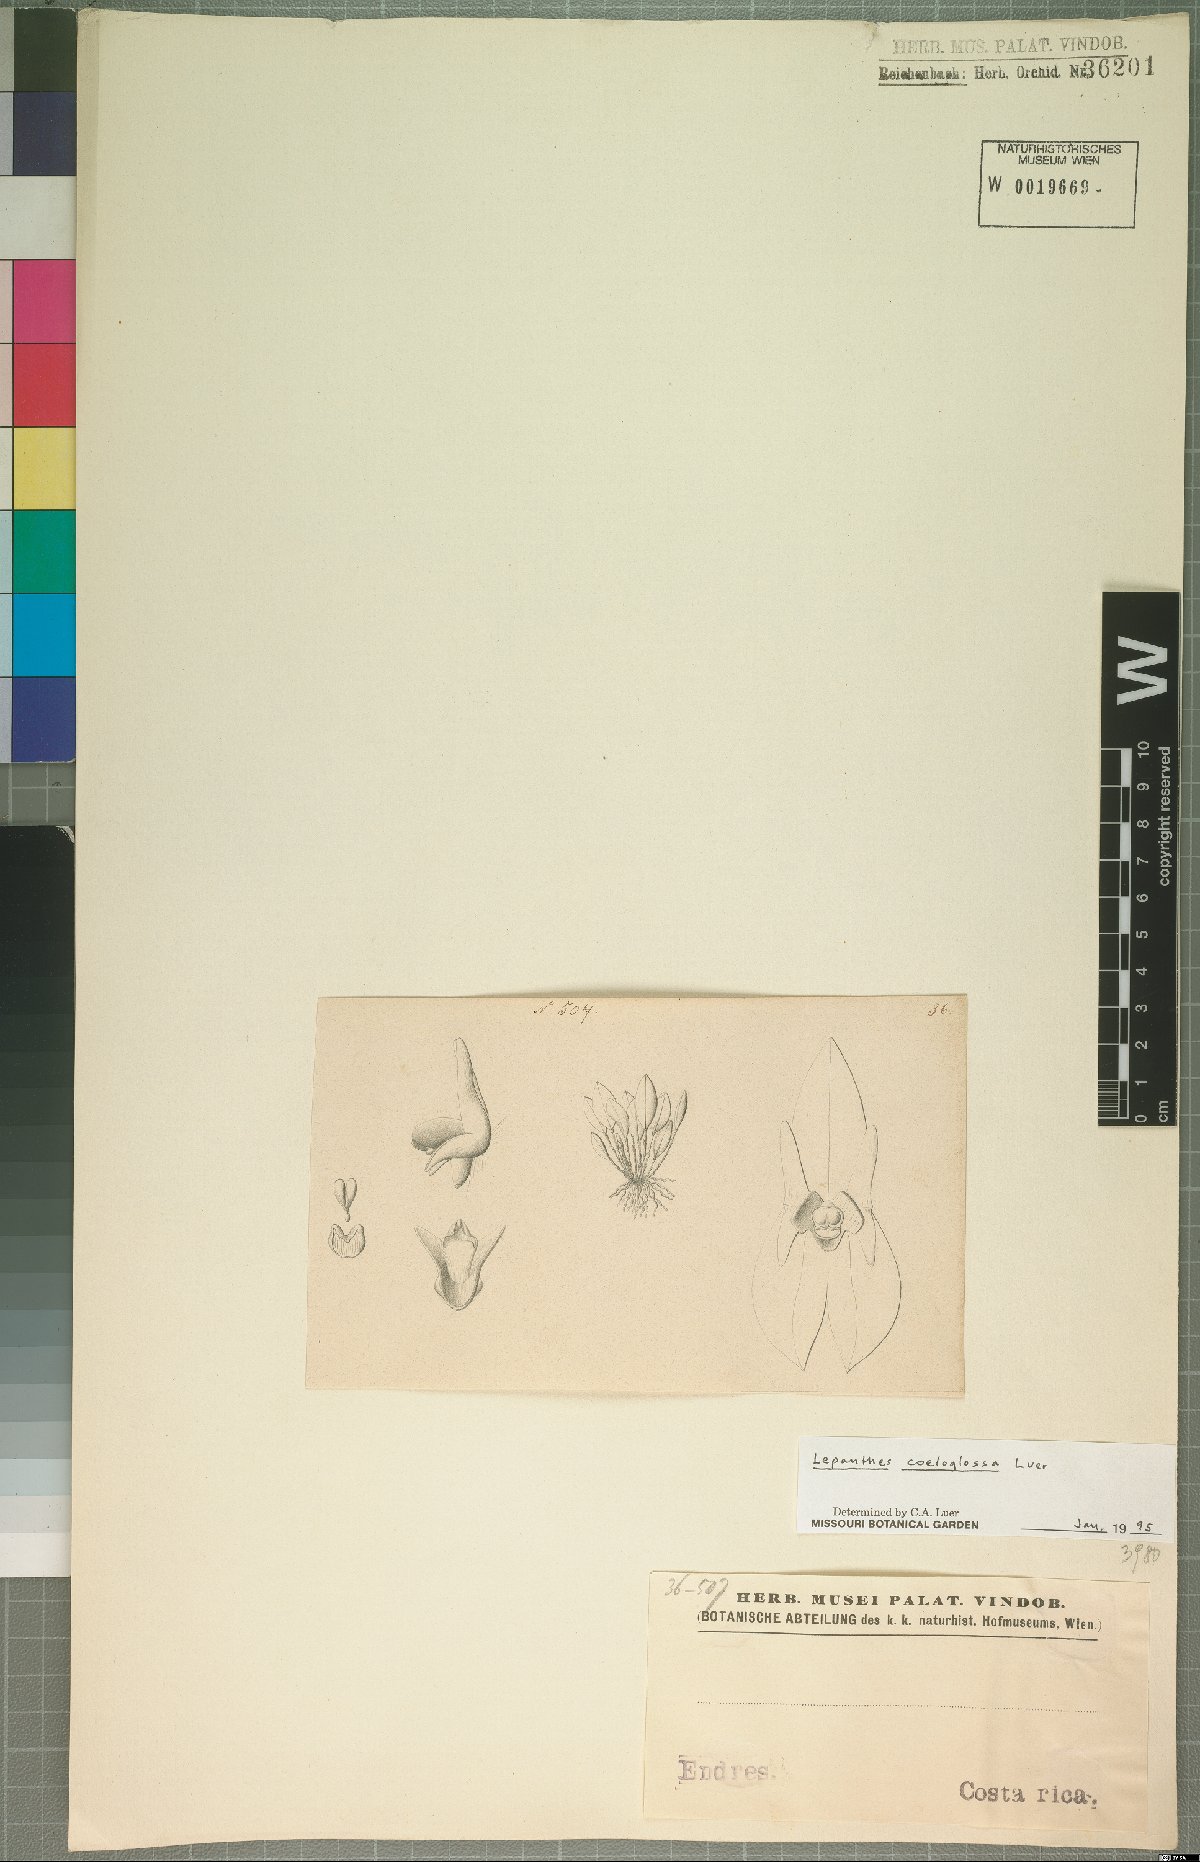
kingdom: Plantae
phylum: Tracheophyta
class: Liliopsida
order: Asparagales
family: Orchidaceae
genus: Lepanthes
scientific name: Lepanthes coeloglossa
